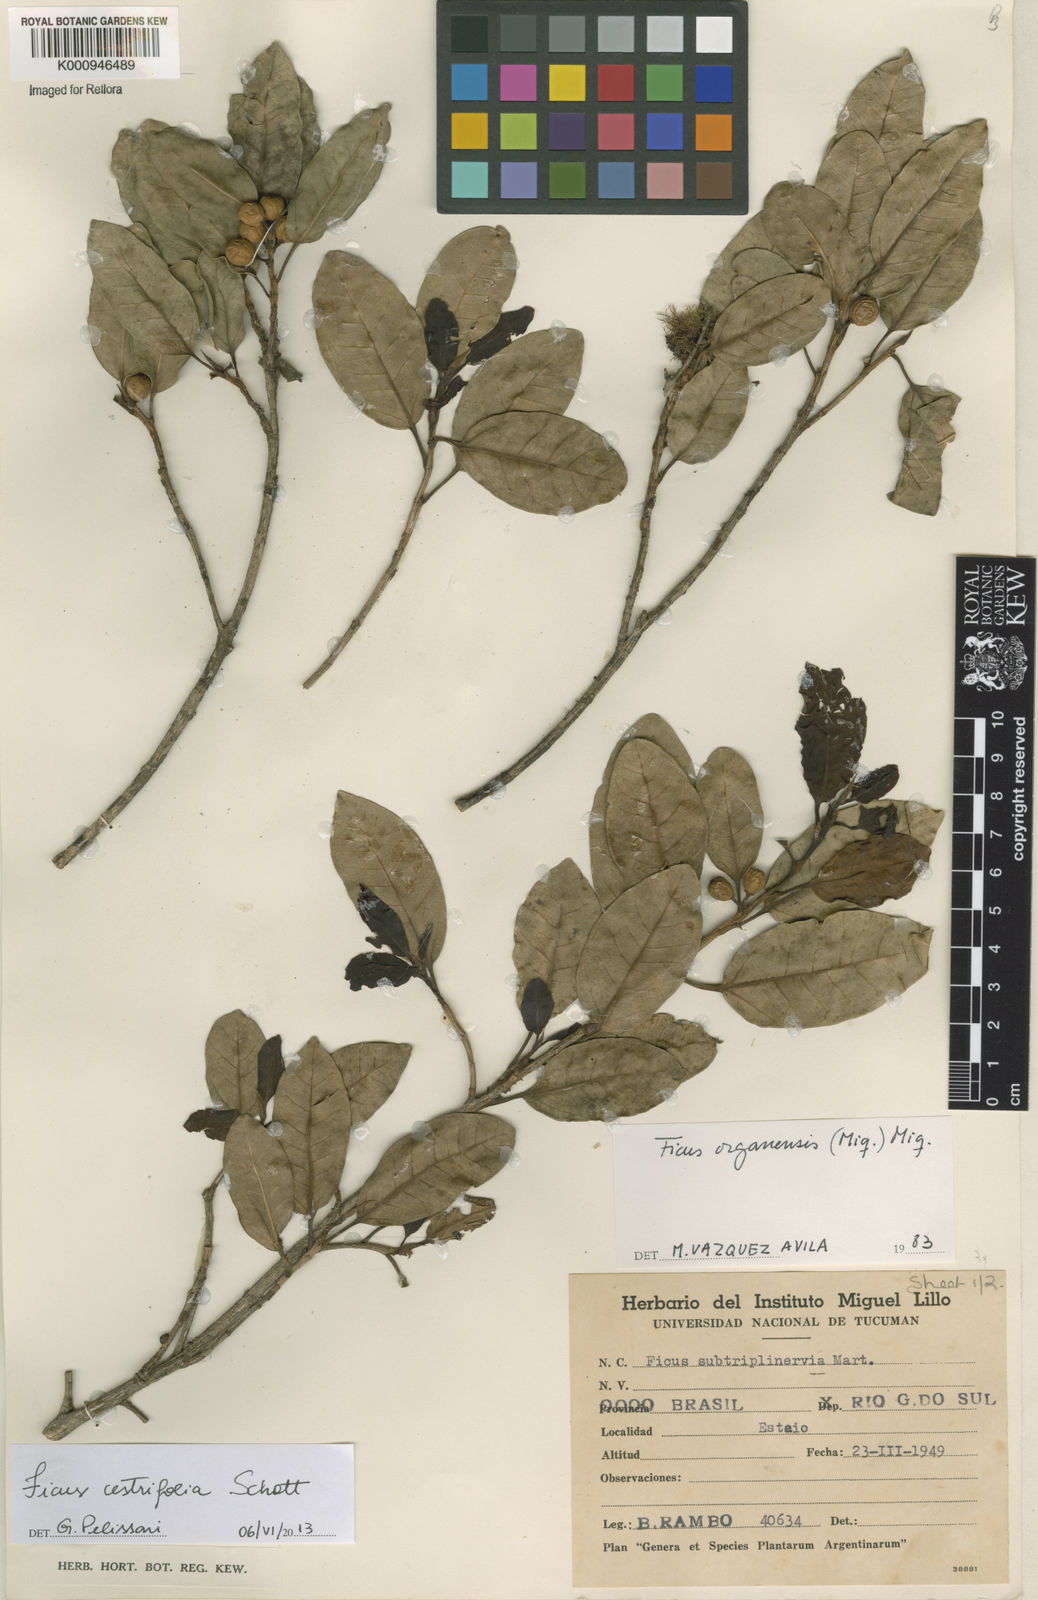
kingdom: Plantae
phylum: Tracheophyta
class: Magnoliopsida
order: Rosales
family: Moraceae
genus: Ficus
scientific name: Ficus
